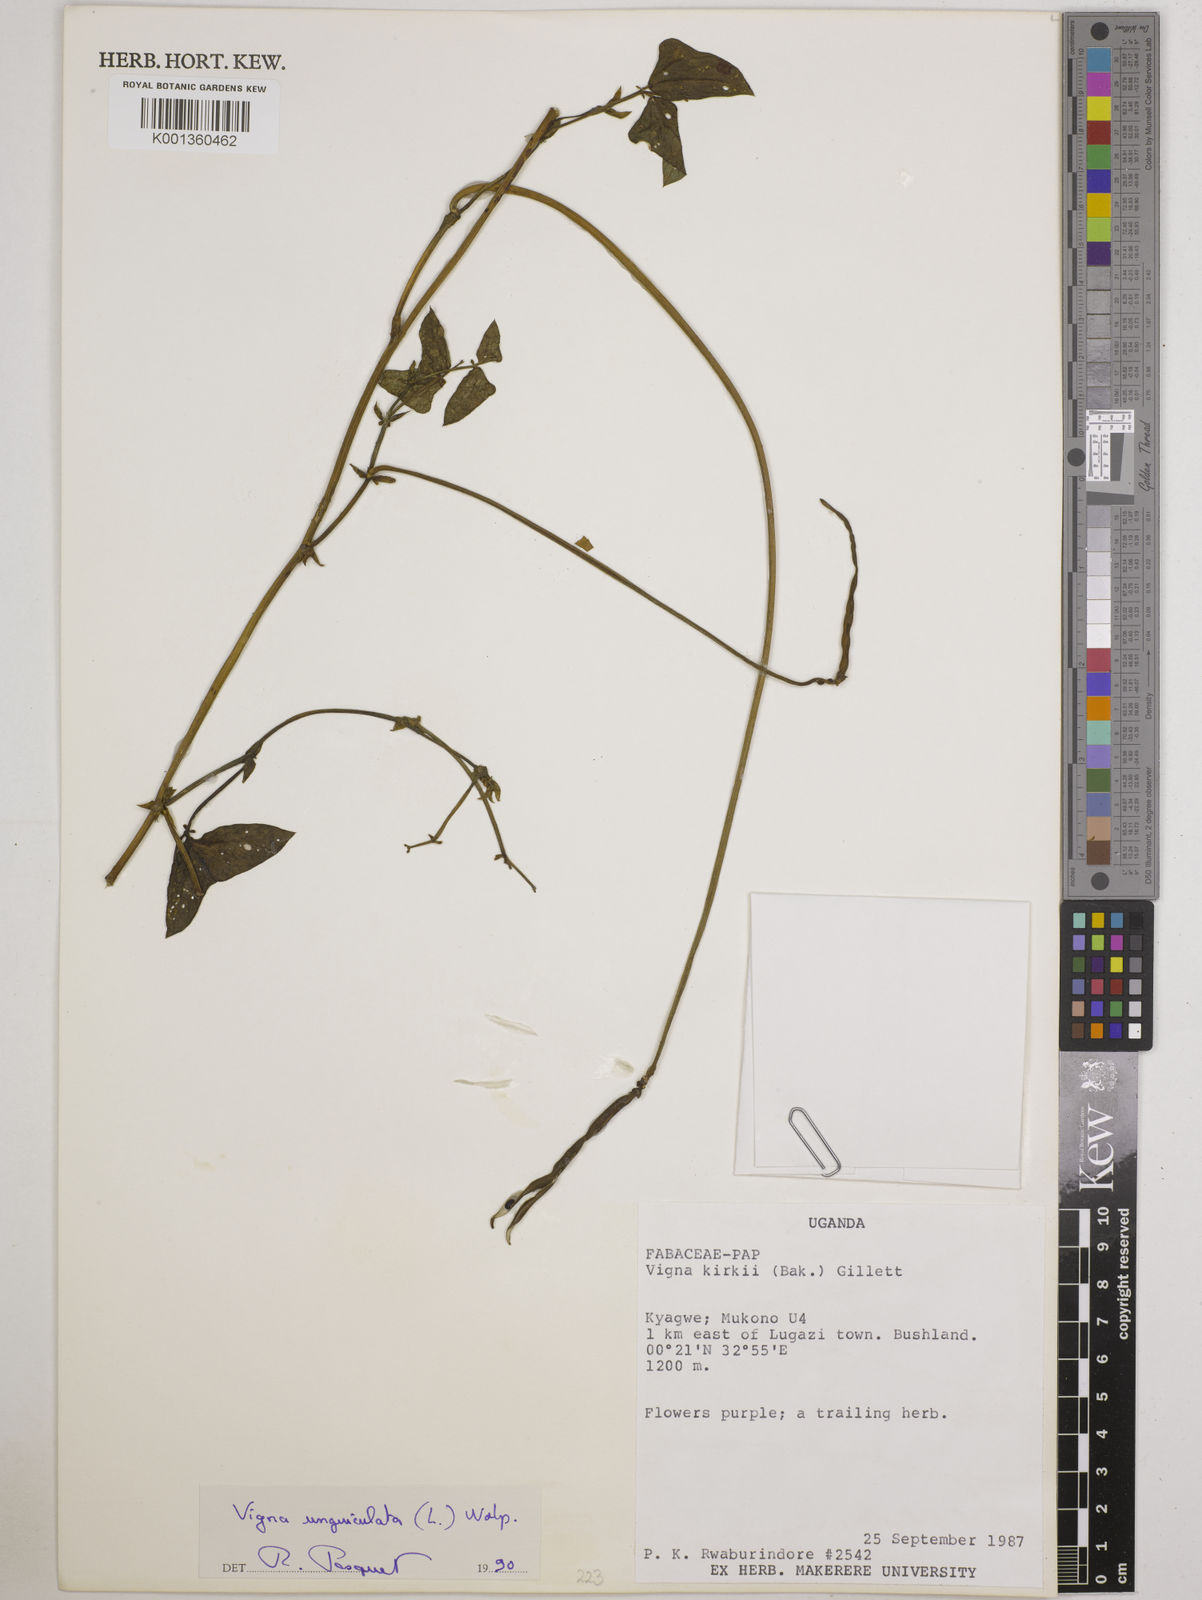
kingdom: Plantae
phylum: Tracheophyta
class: Magnoliopsida
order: Fabales
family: Fabaceae
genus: Vigna
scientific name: Vigna
